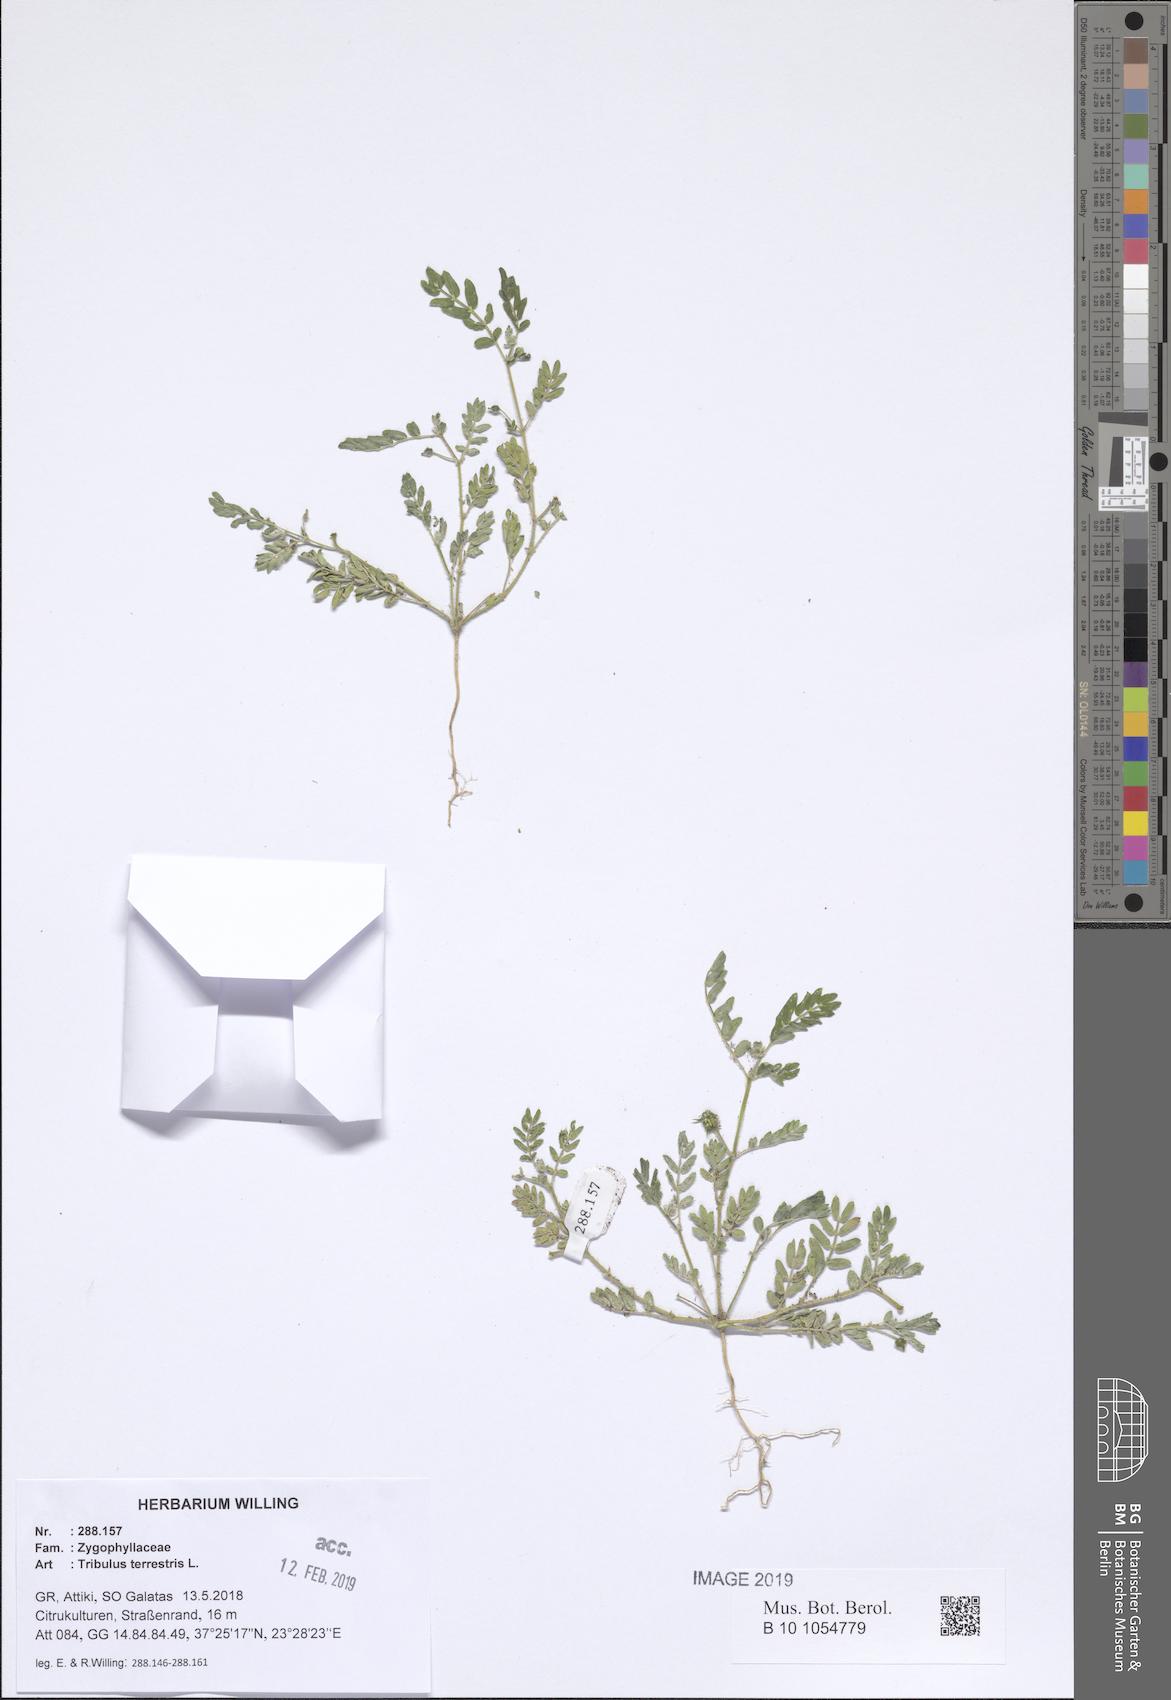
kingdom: Plantae
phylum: Tracheophyta
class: Magnoliopsida
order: Zygophyllales
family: Zygophyllaceae
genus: Tribulus
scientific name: Tribulus terrestris
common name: Puncturevine
